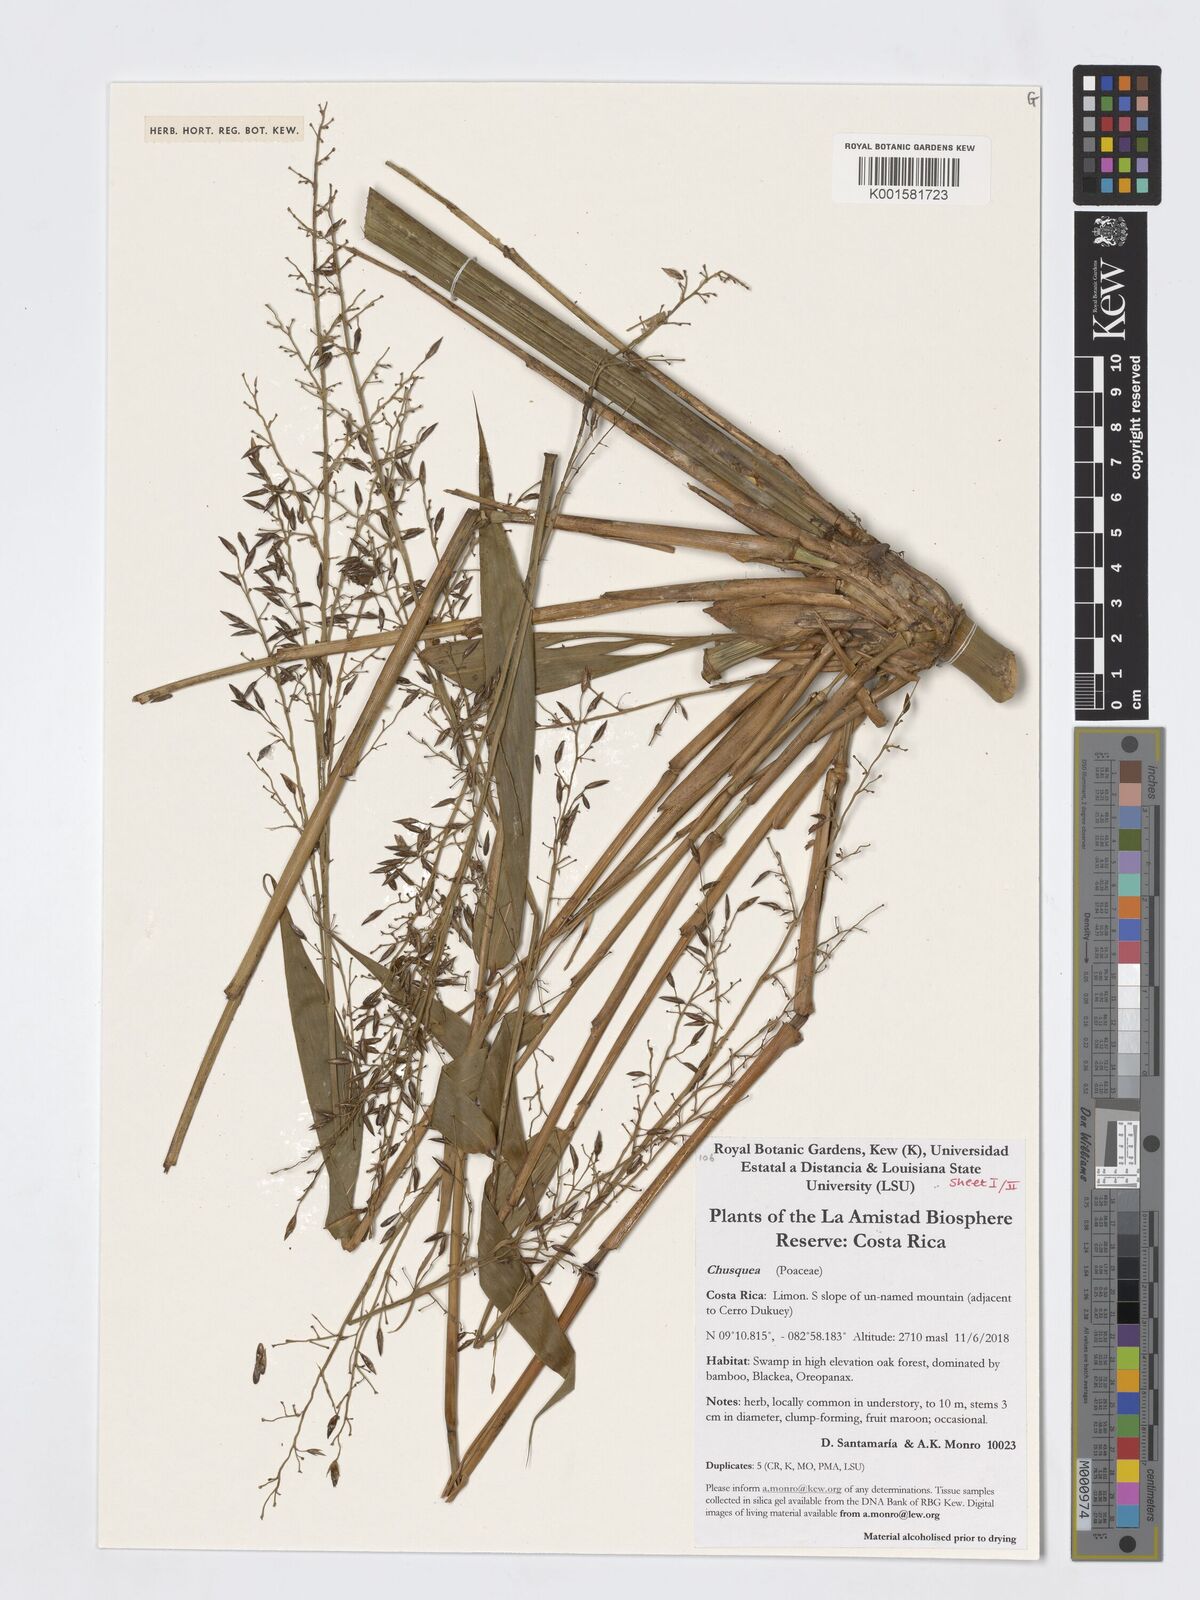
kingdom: Plantae
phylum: Tracheophyta
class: Liliopsida
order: Poales
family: Poaceae
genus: Chusquea
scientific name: Chusquea
